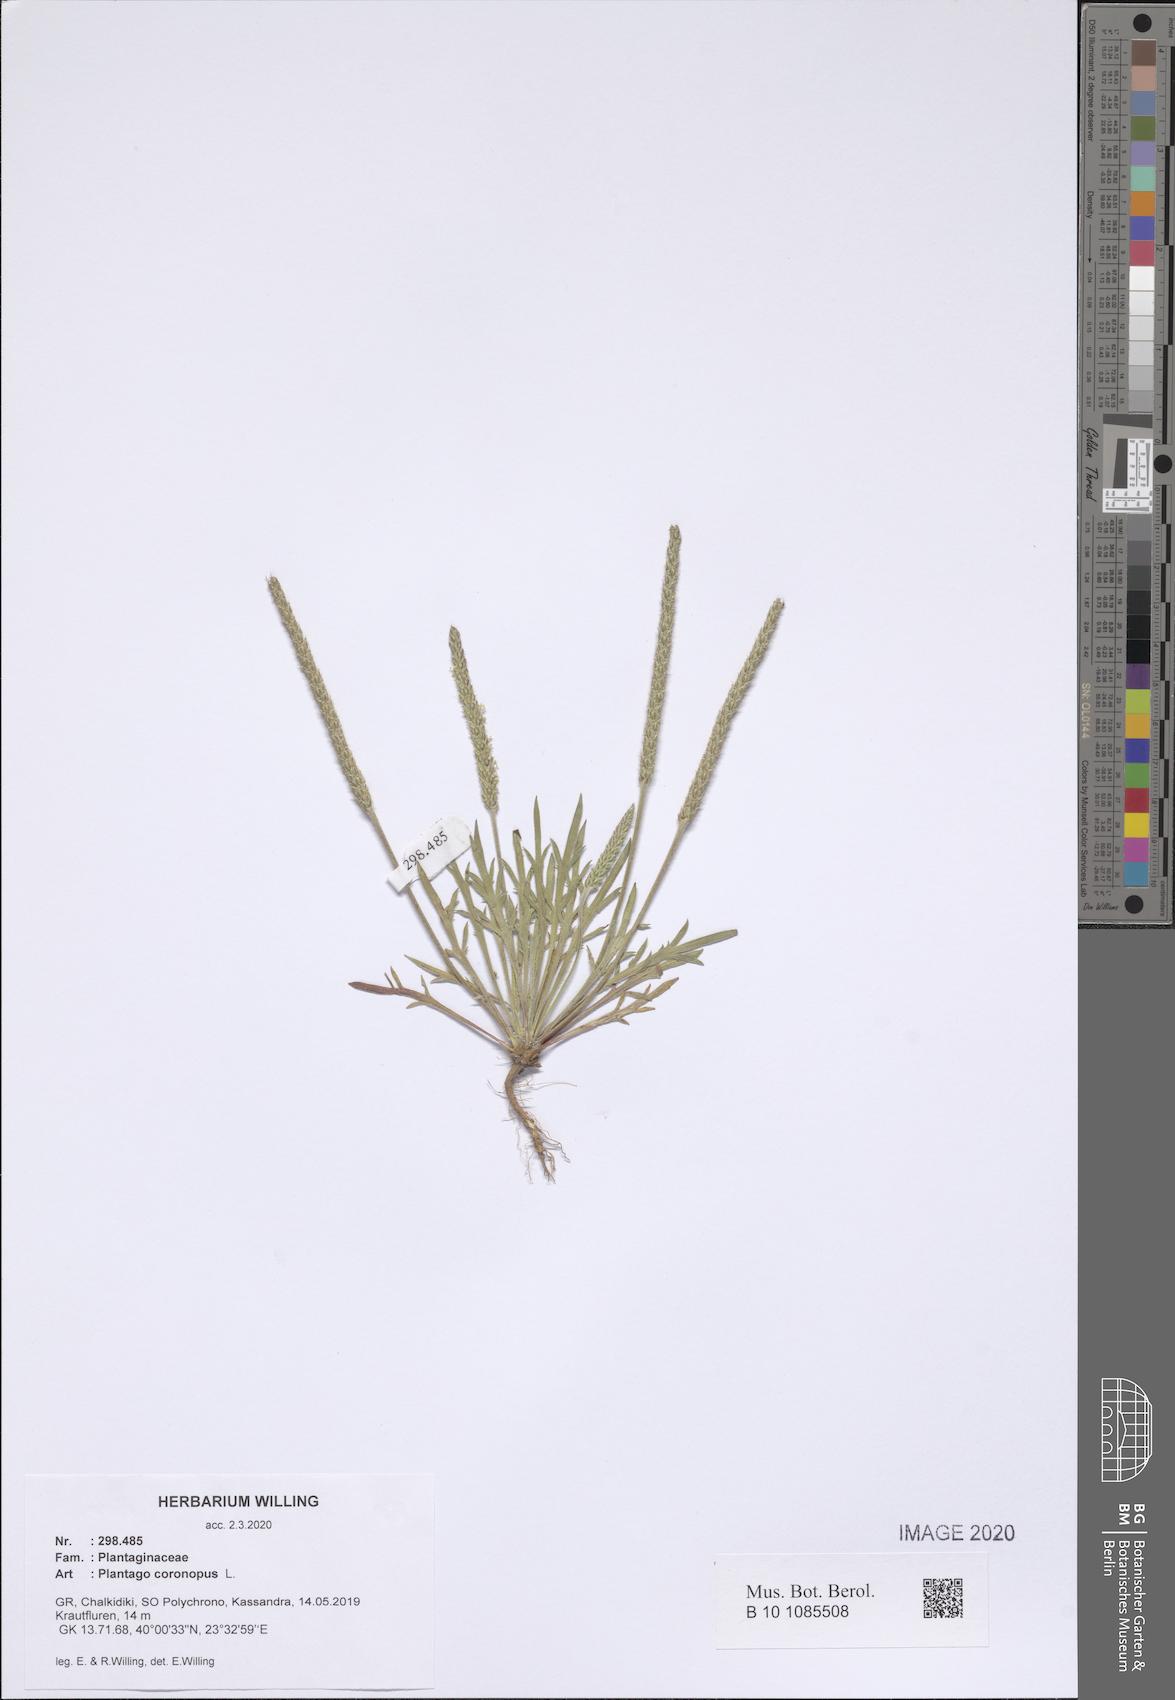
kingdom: Plantae
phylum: Tracheophyta
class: Magnoliopsida
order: Lamiales
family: Plantaginaceae
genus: Plantago
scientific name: Plantago coronopus
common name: Buck's-horn plantain
